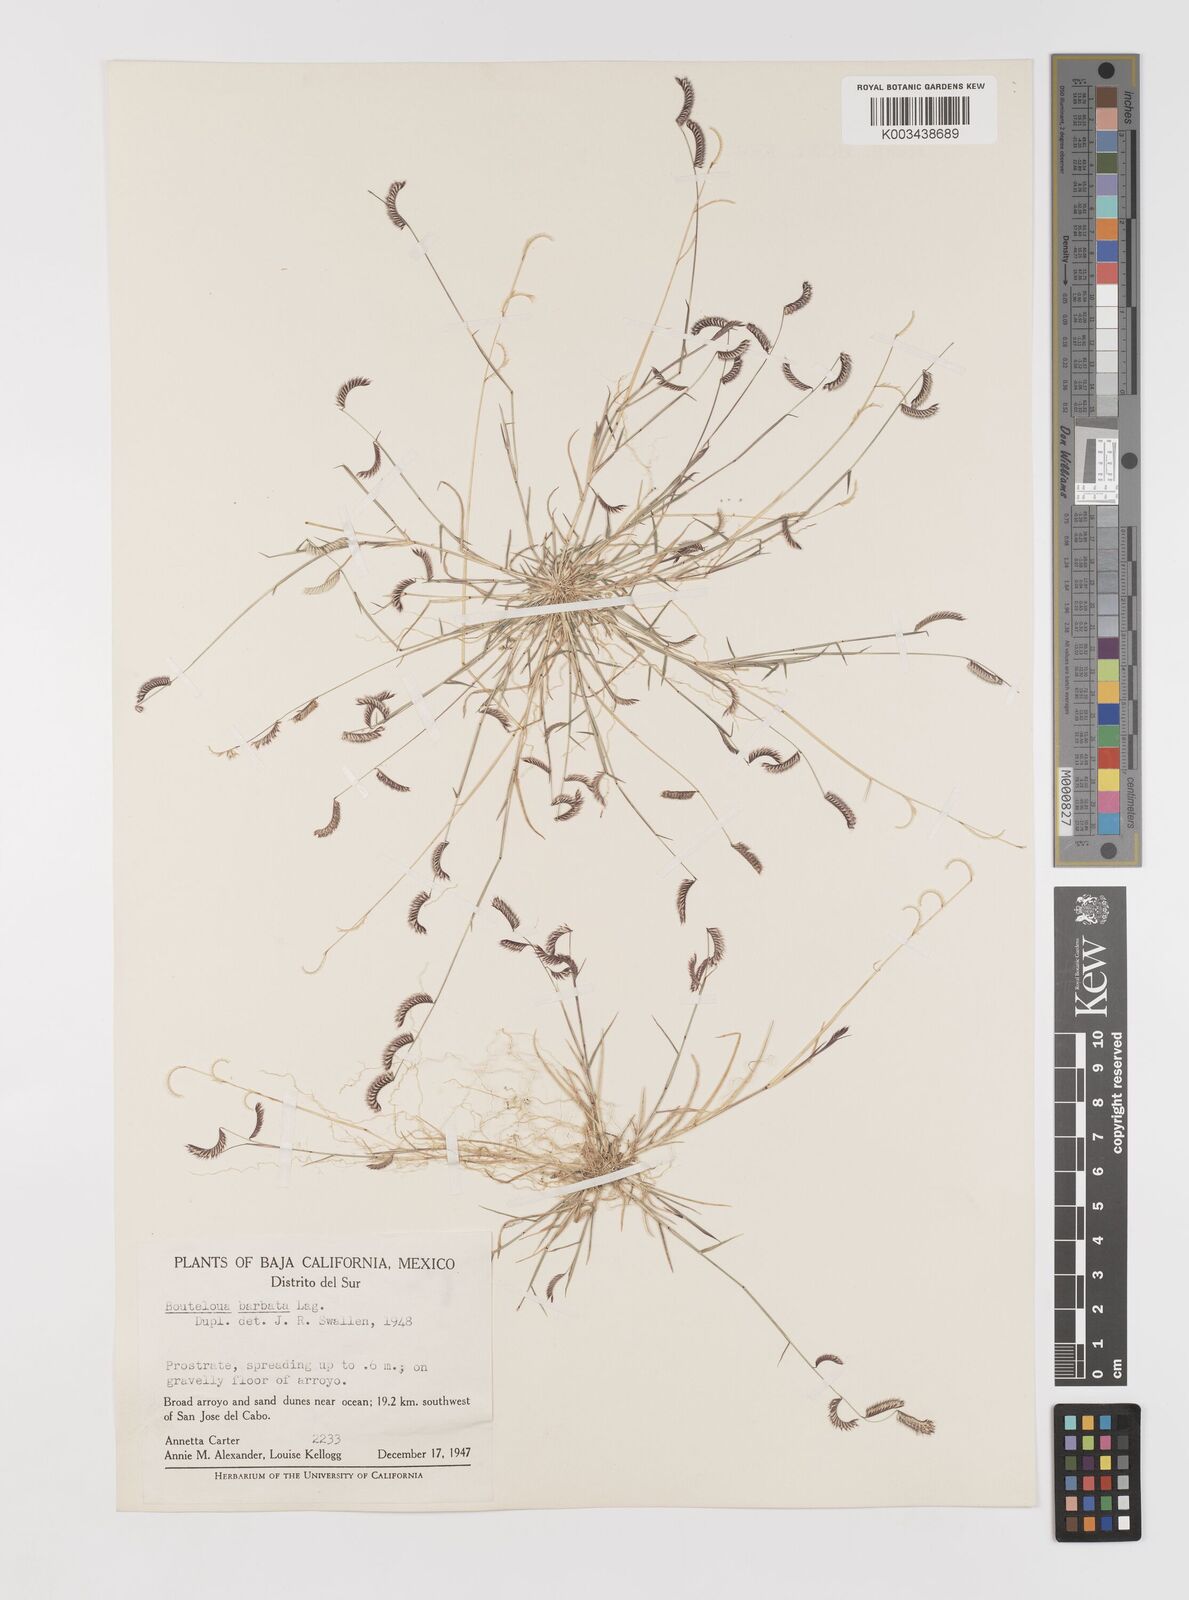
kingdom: Plantae
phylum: Tracheophyta
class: Liliopsida
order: Poales
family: Poaceae
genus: Bouteloua
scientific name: Bouteloua
